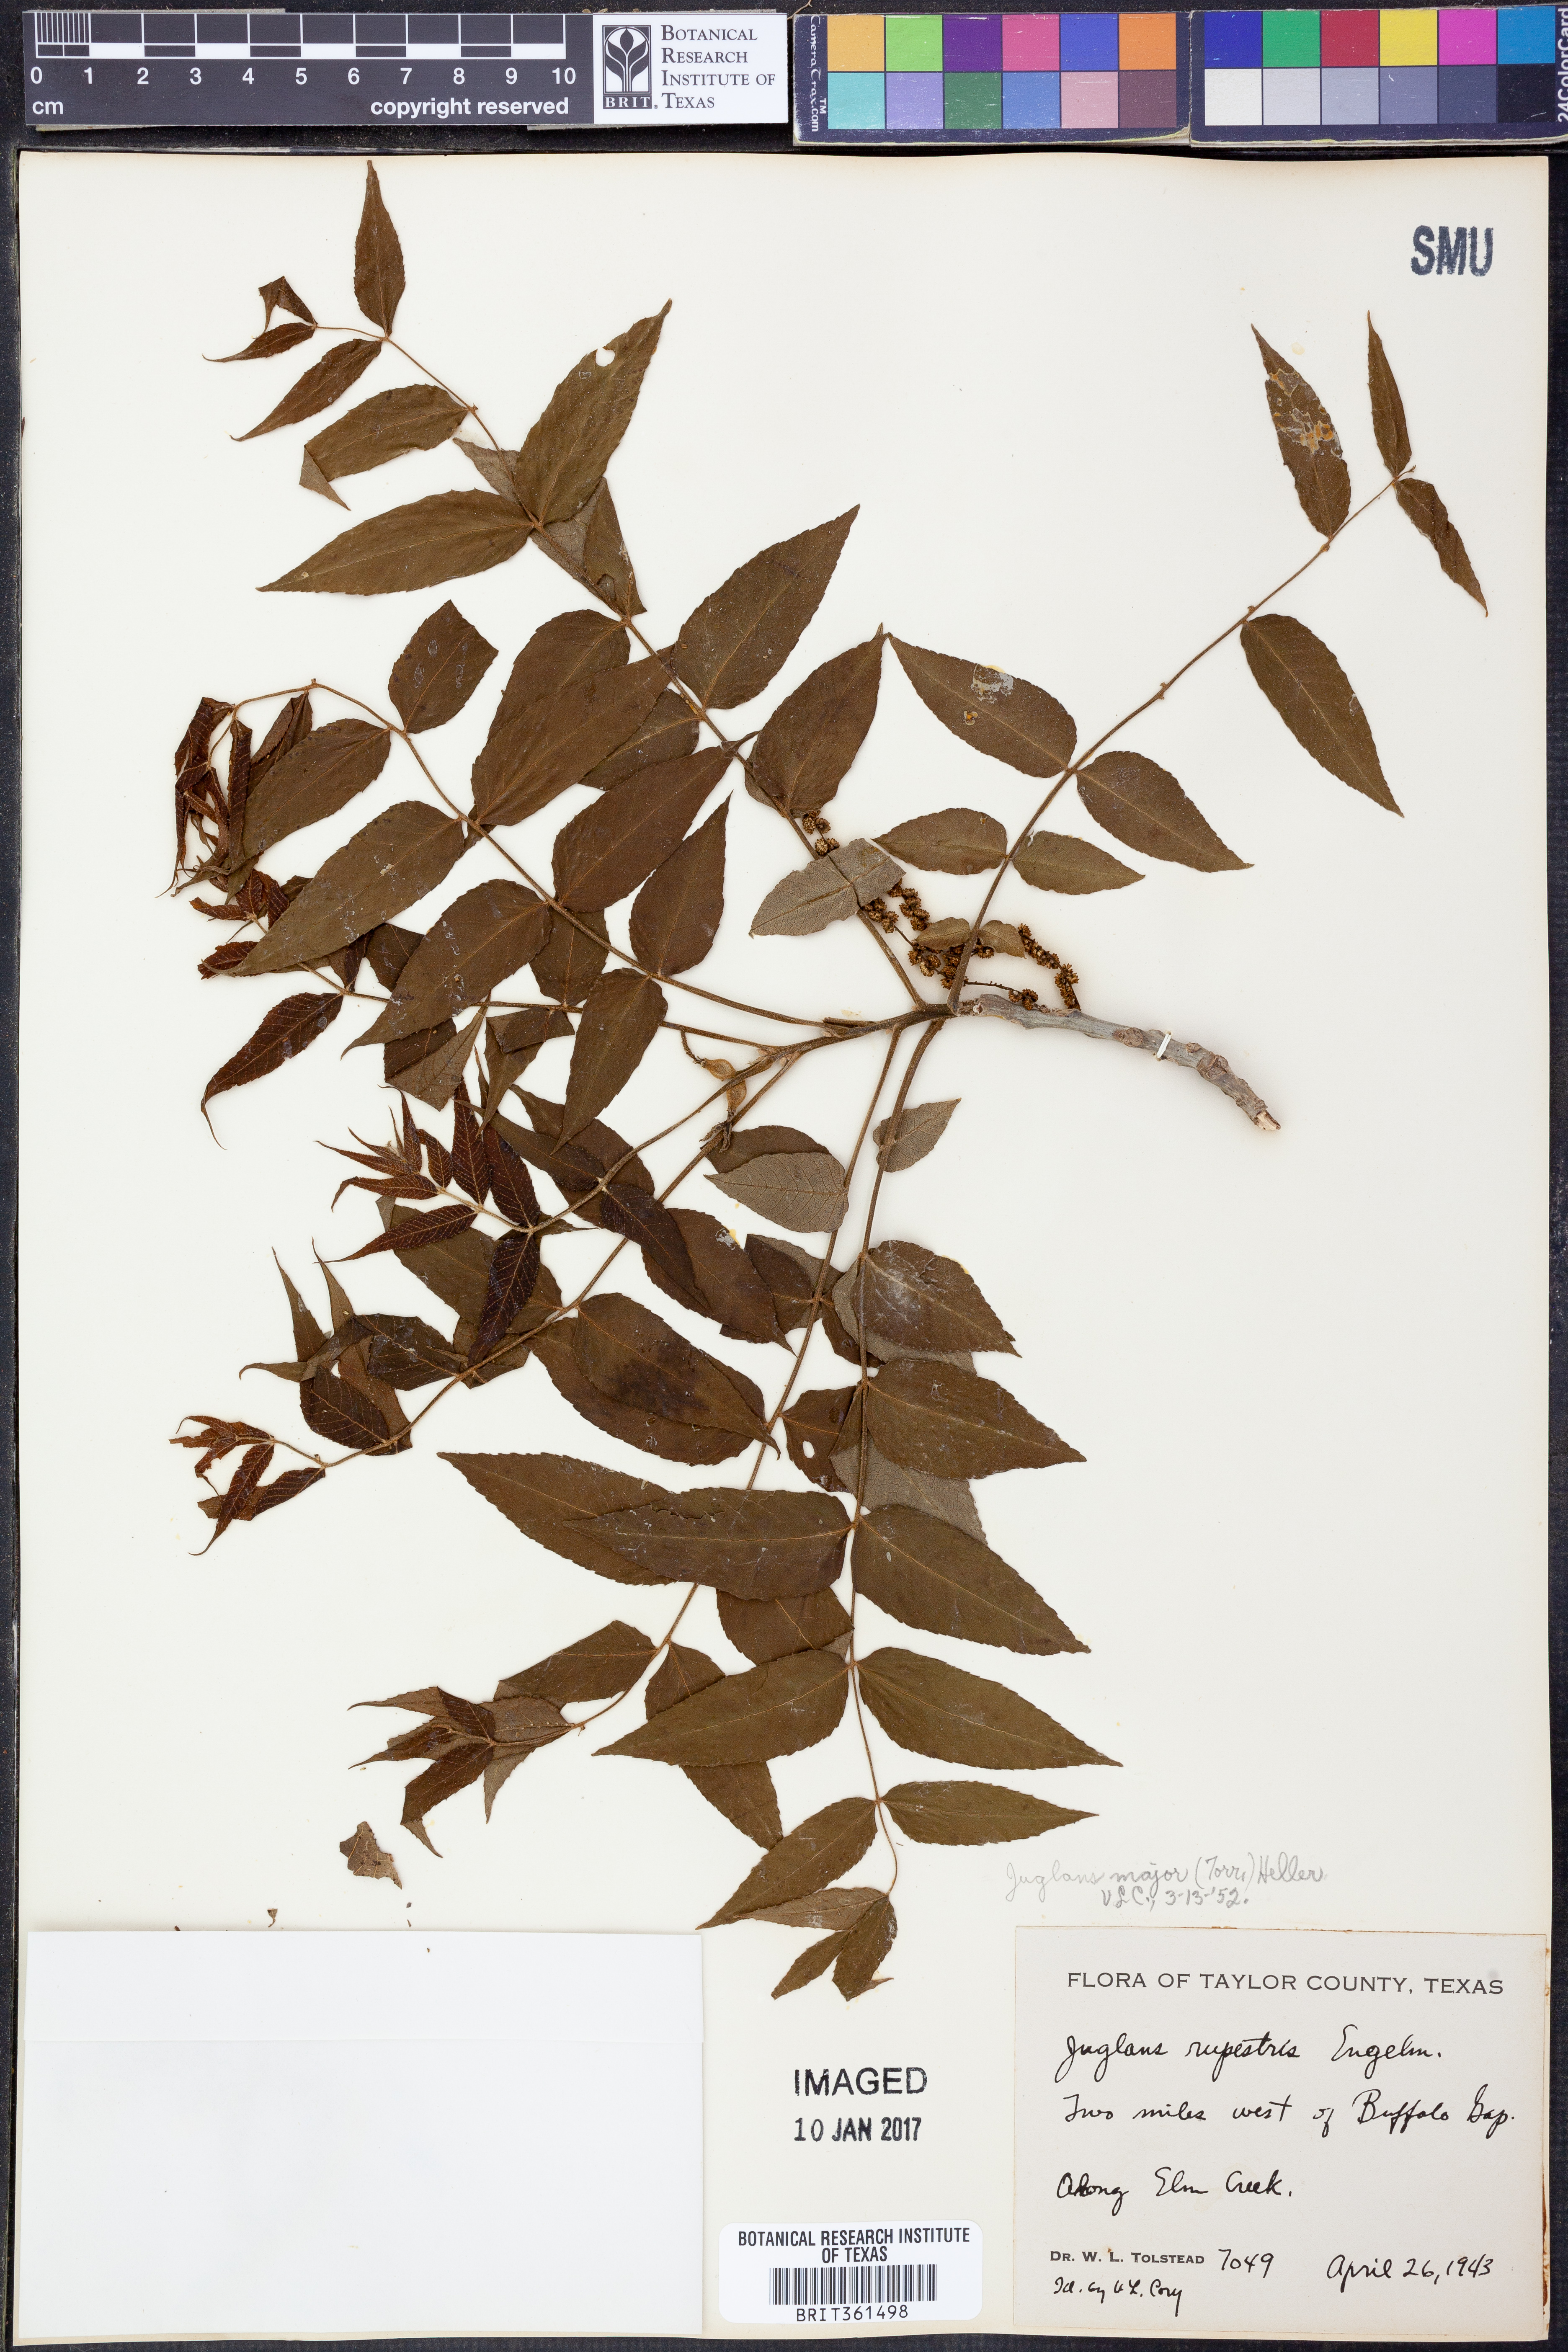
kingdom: Plantae
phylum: Tracheophyta
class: Magnoliopsida
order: Fagales
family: Juglandaceae
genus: Juglans
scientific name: Juglans major
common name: Arizona walnut
